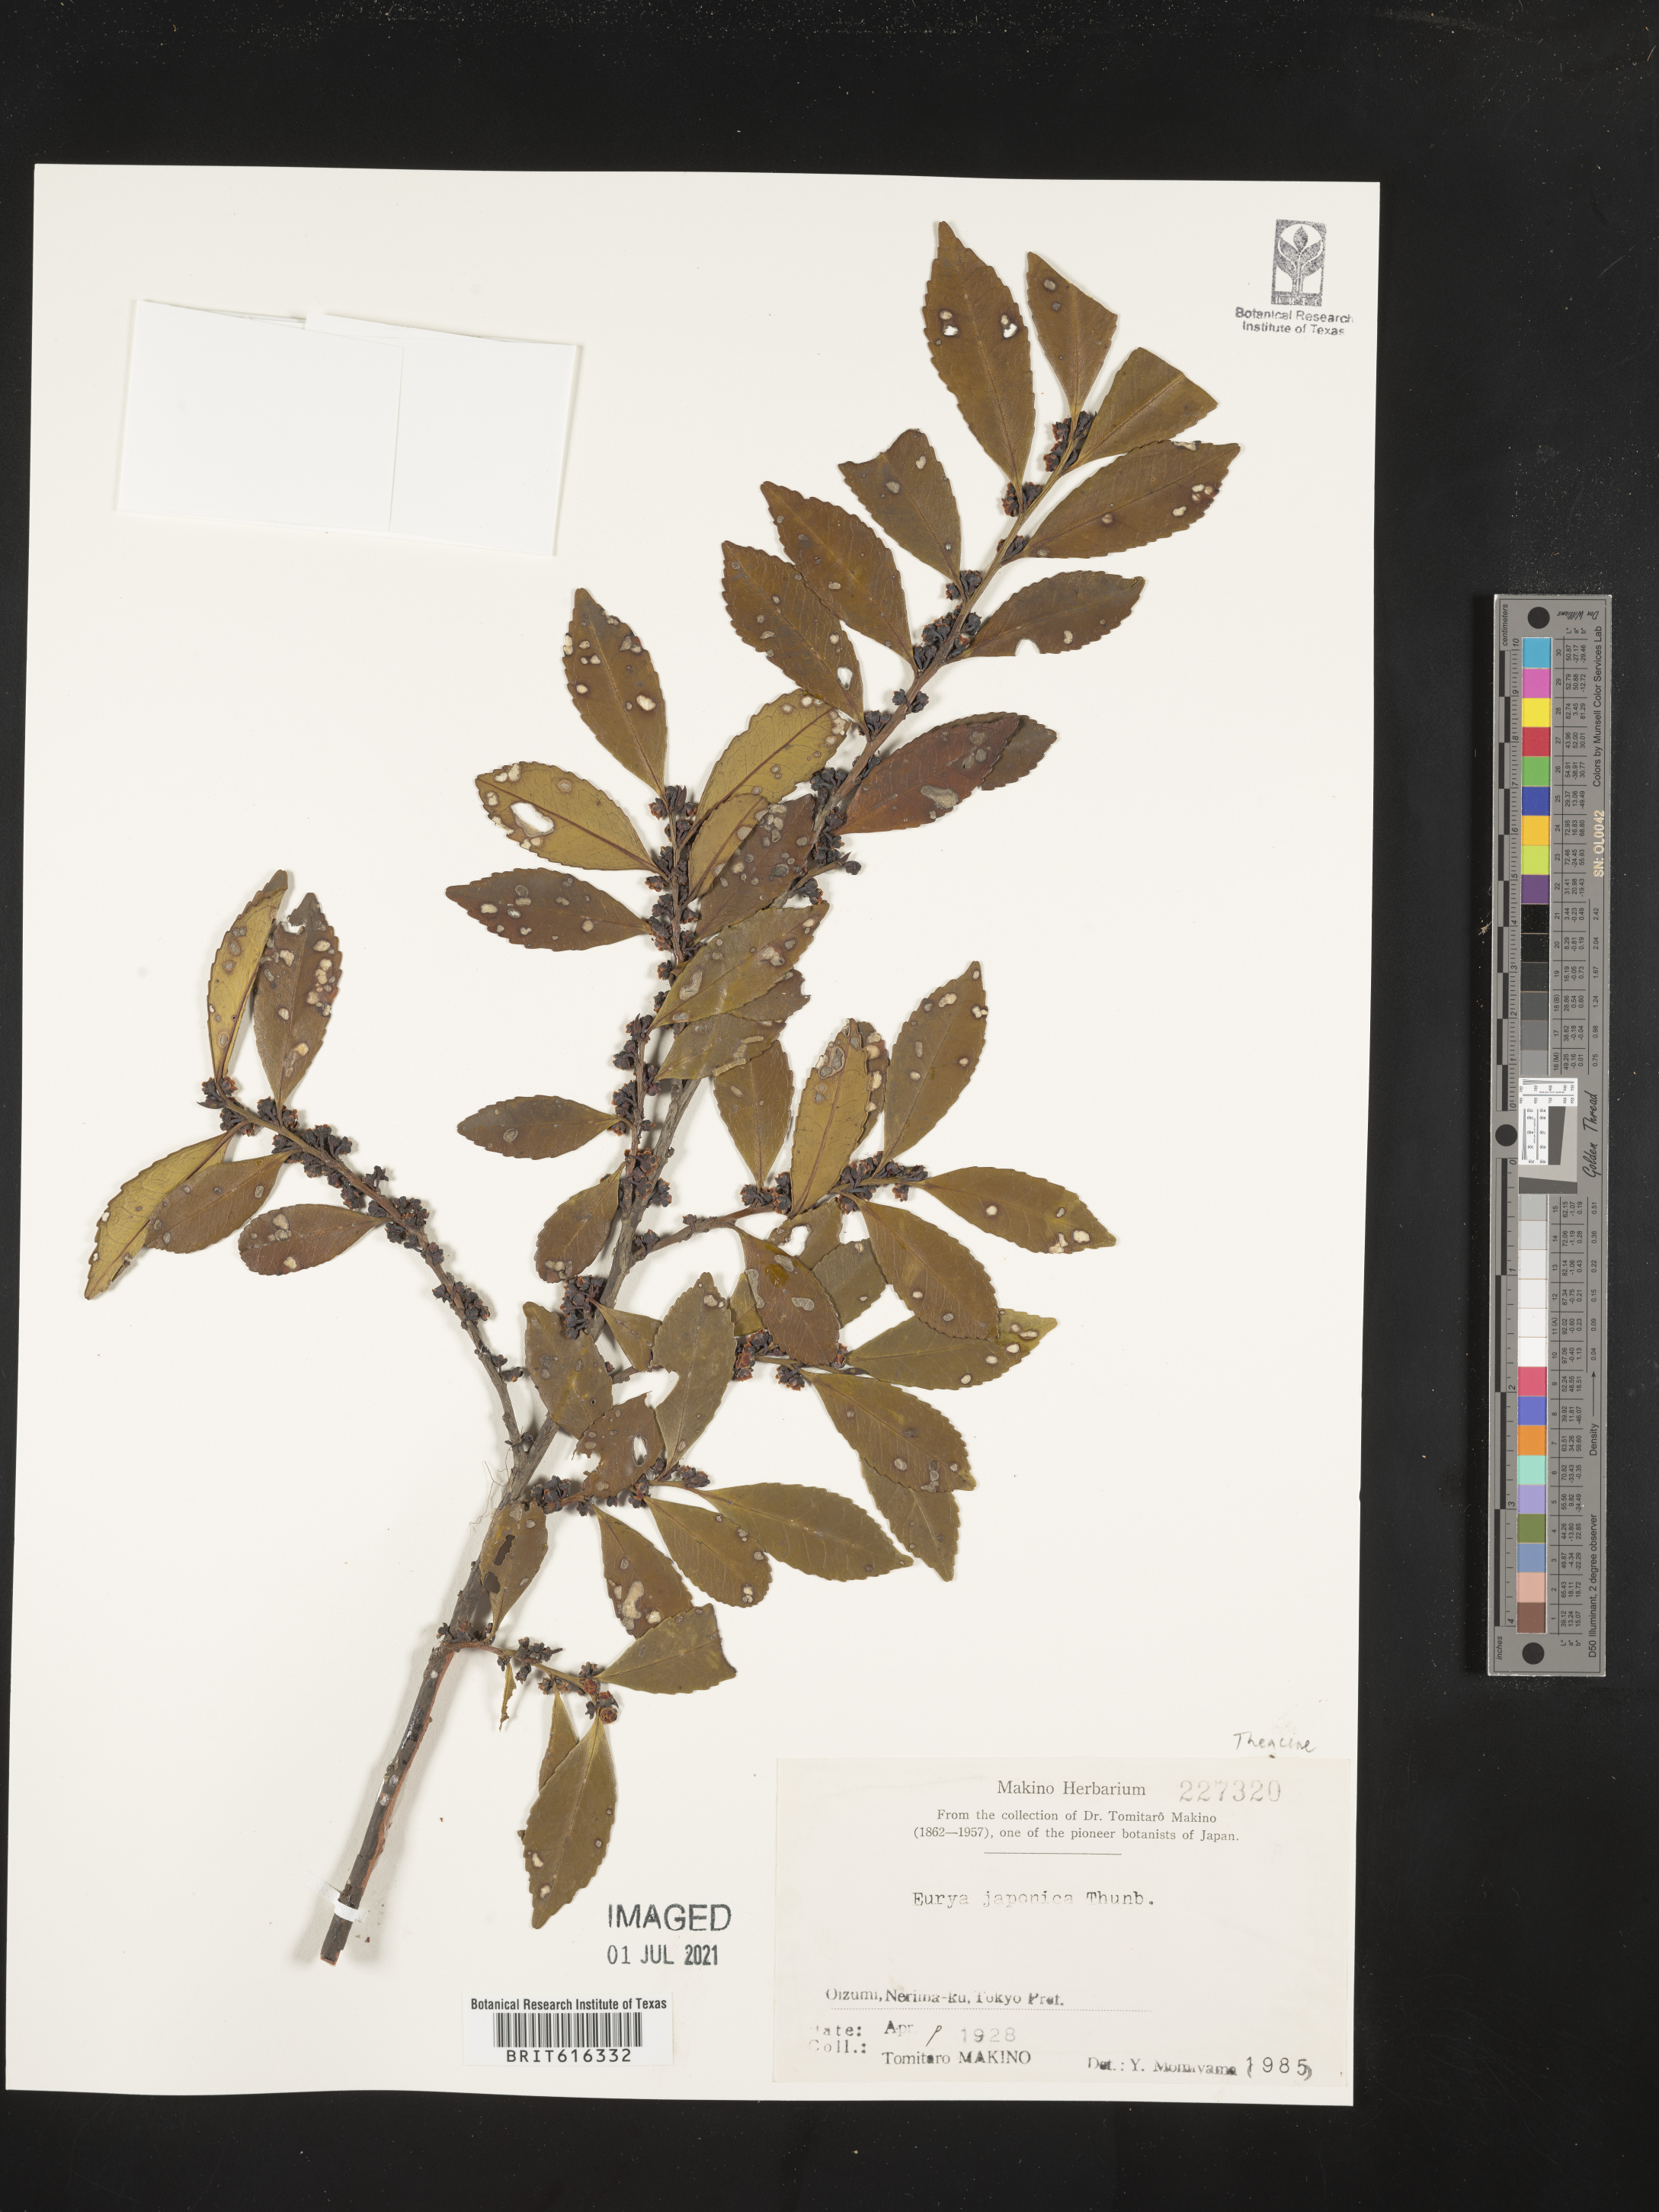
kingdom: Plantae
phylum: Tracheophyta
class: Magnoliopsida
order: Ericales
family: Pentaphylacaceae
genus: Eurya
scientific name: Eurya japonica
